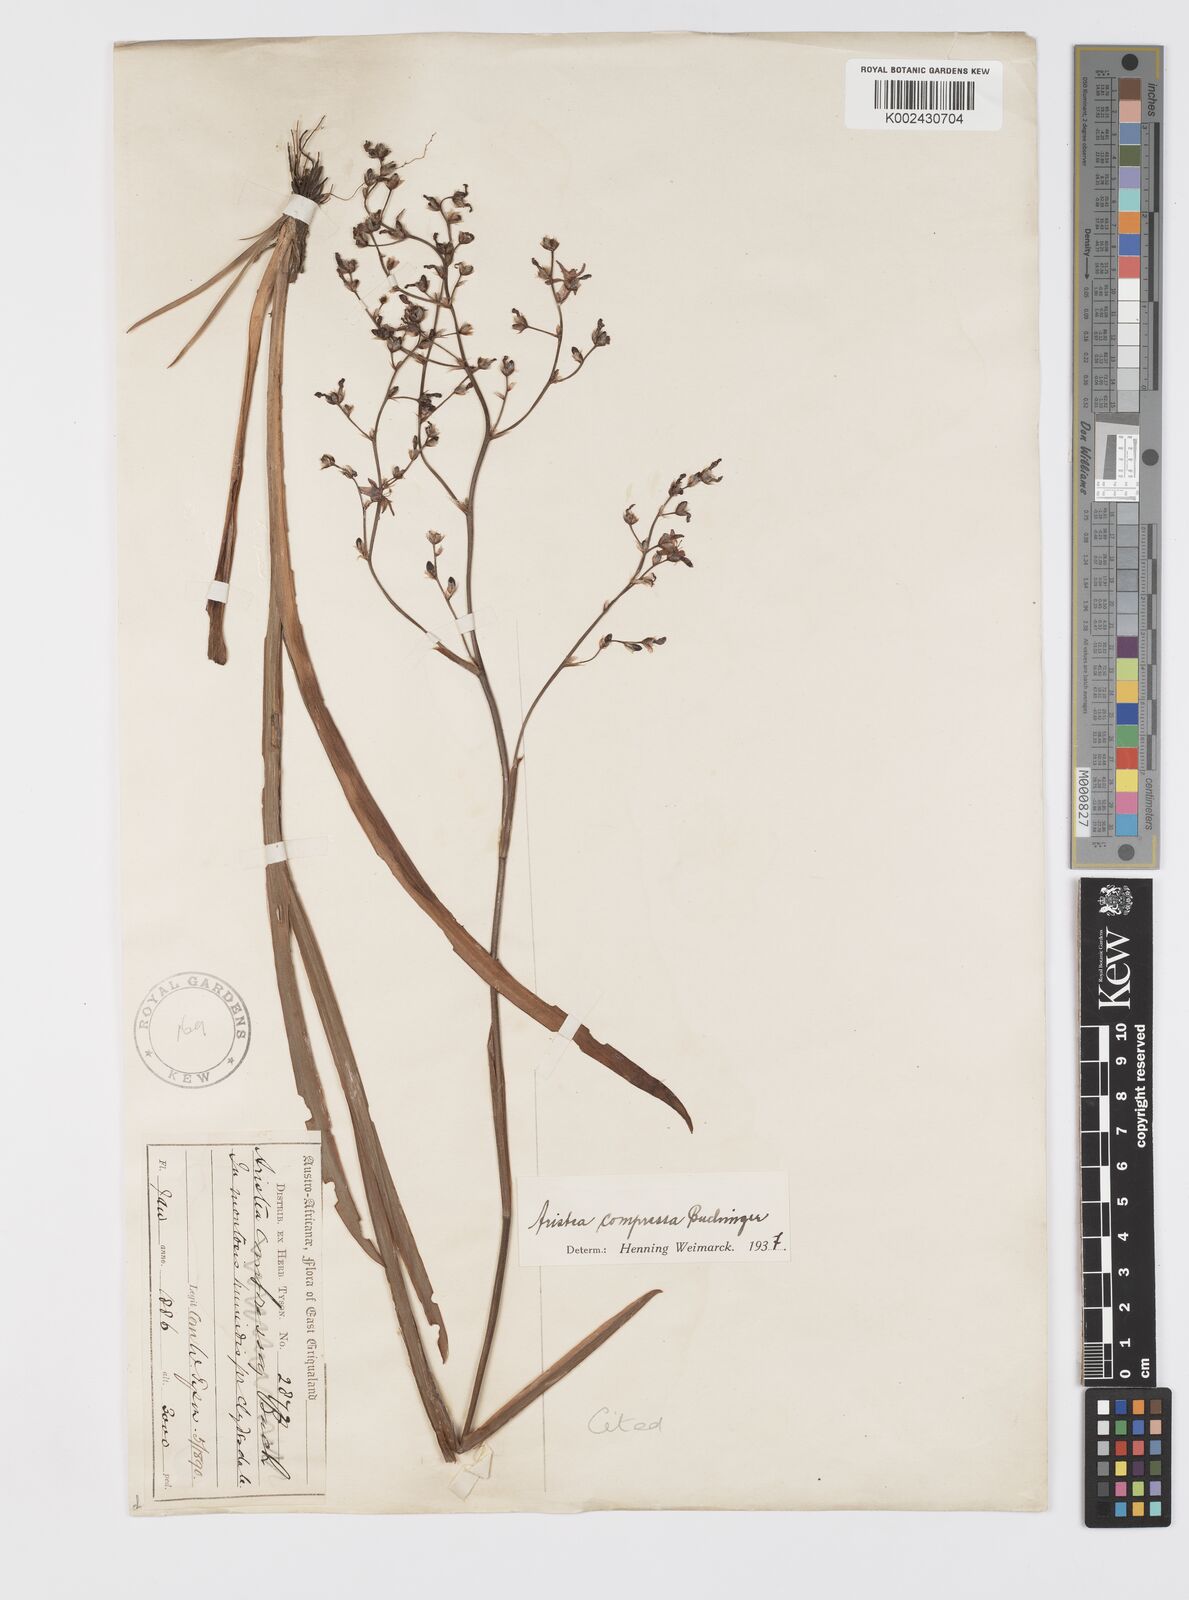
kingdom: Plantae
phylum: Tracheophyta
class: Liliopsida
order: Asparagales
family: Iridaceae
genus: Aristea
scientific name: Aristea bakeri
